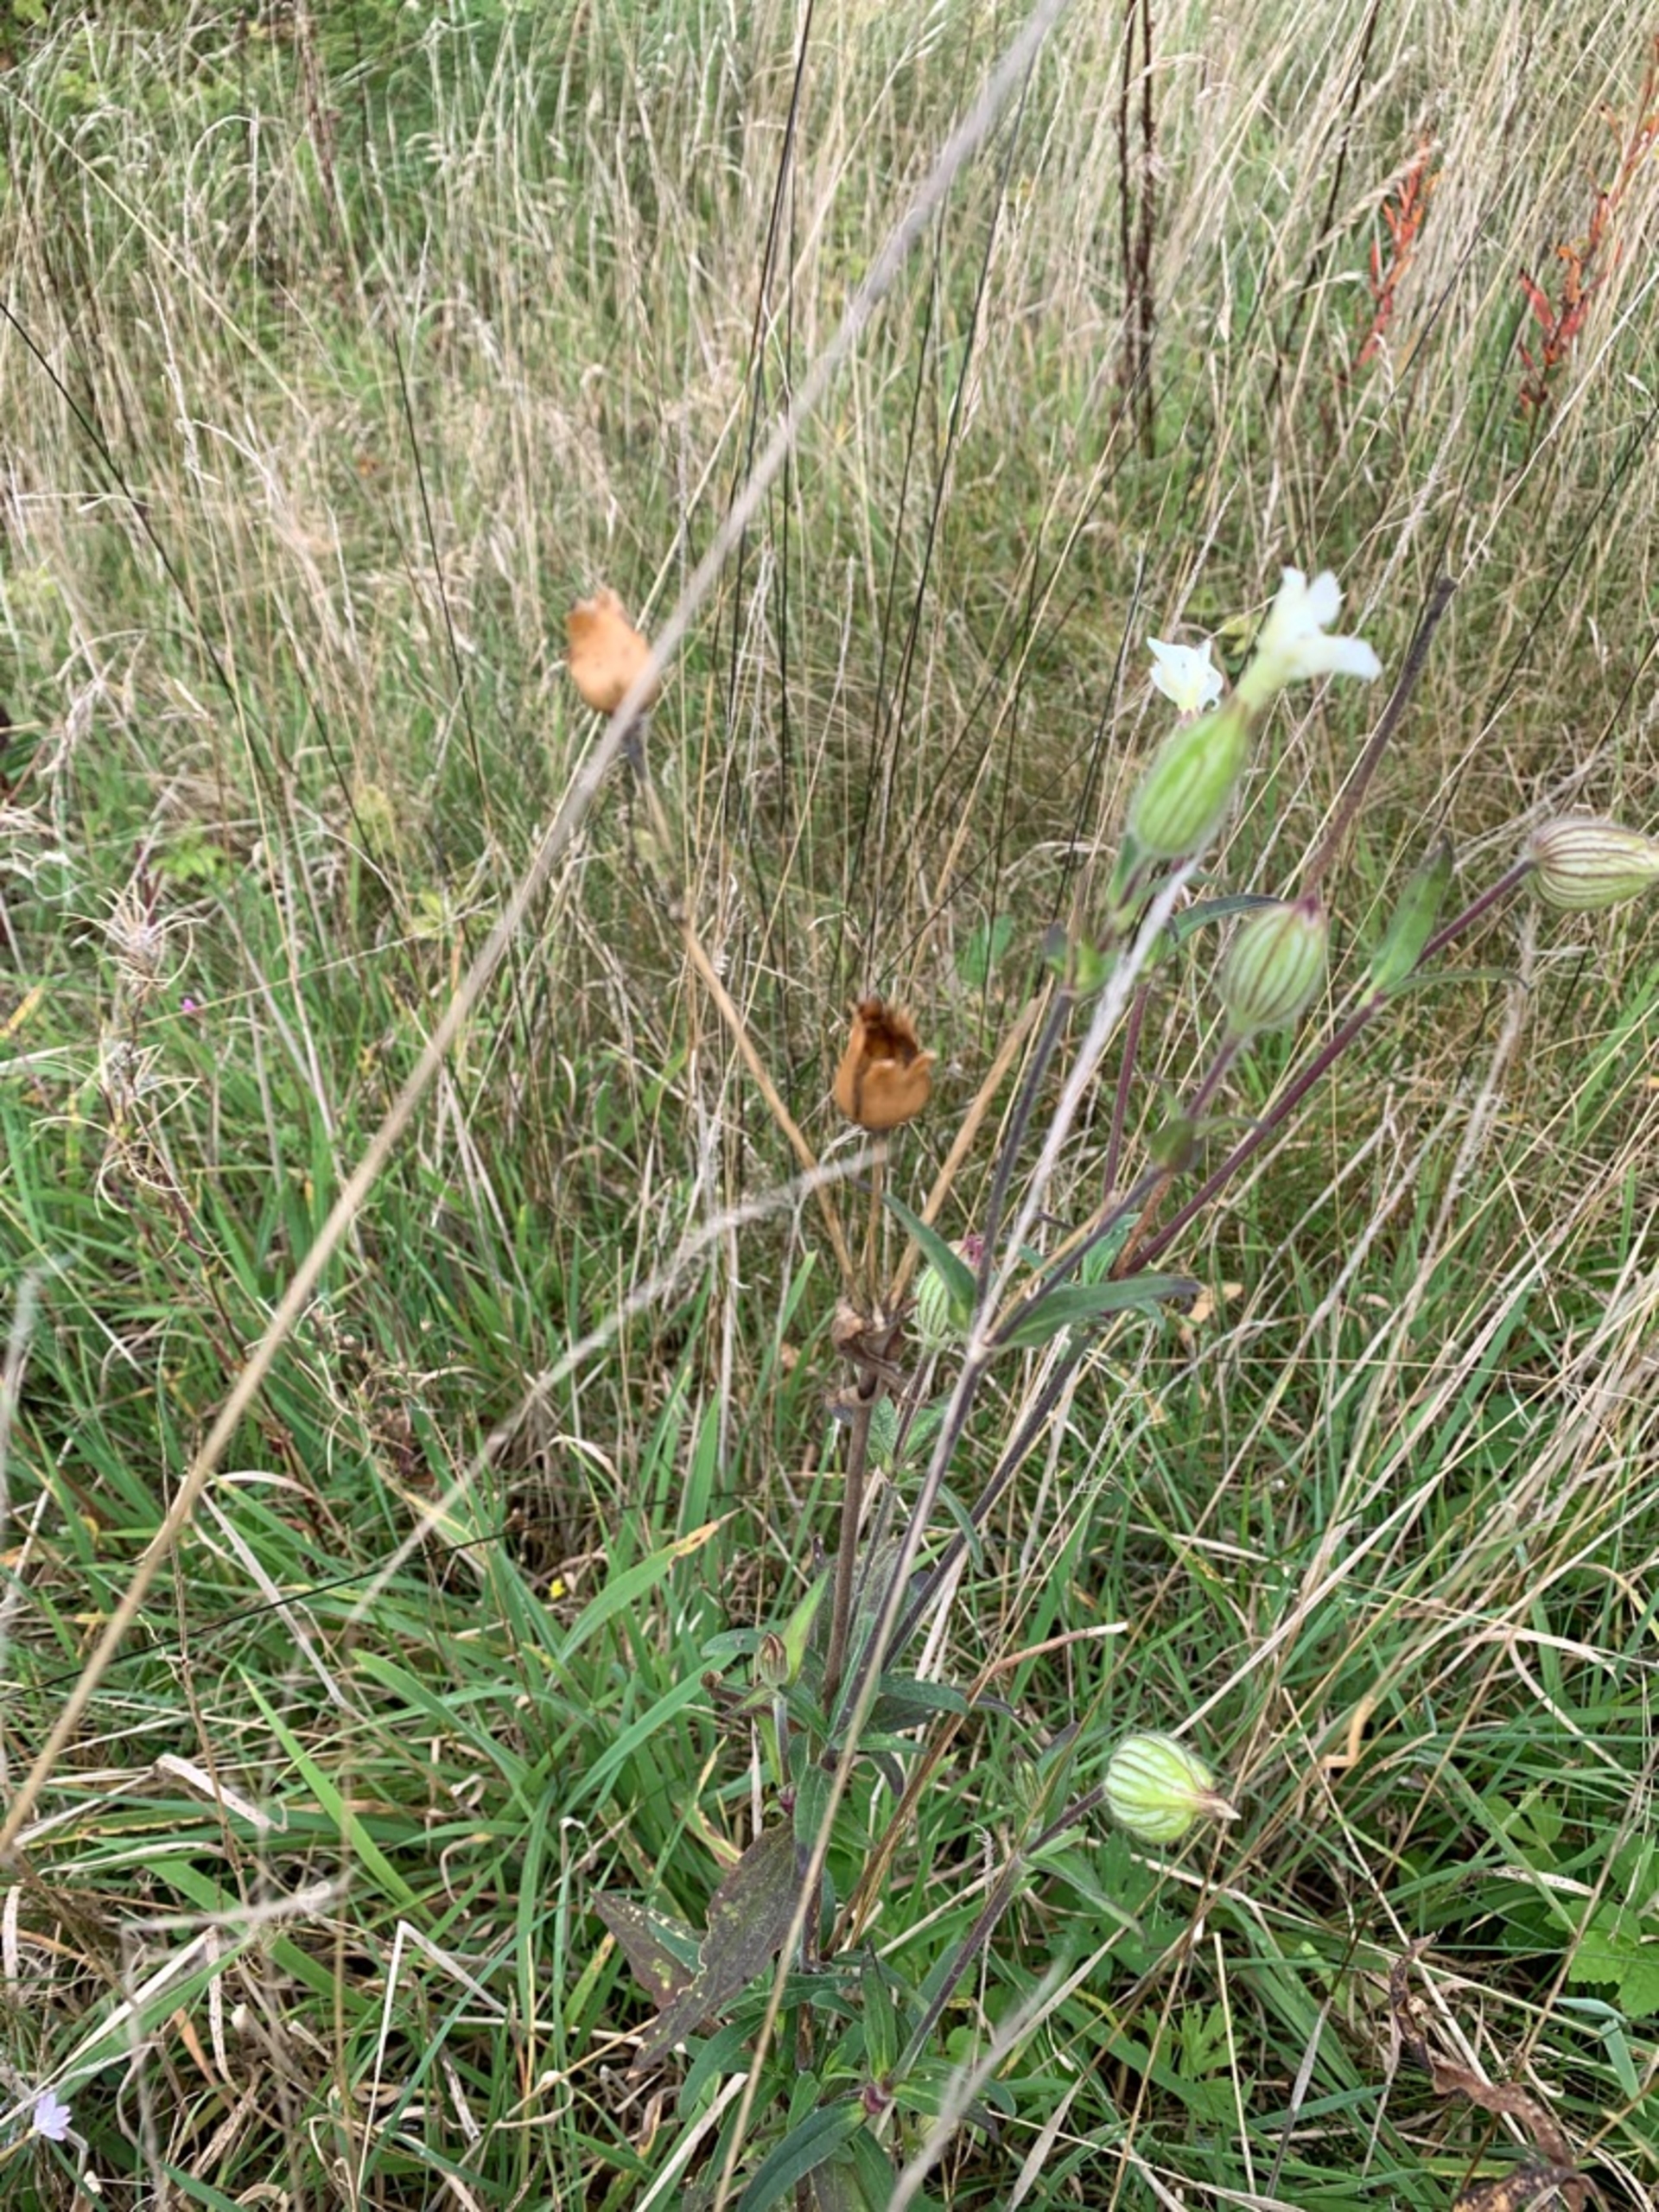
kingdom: Plantae
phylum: Tracheophyta
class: Magnoliopsida
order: Caryophyllales
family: Caryophyllaceae
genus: Silene
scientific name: Silene latifolia
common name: Aftenpragtstjerne
